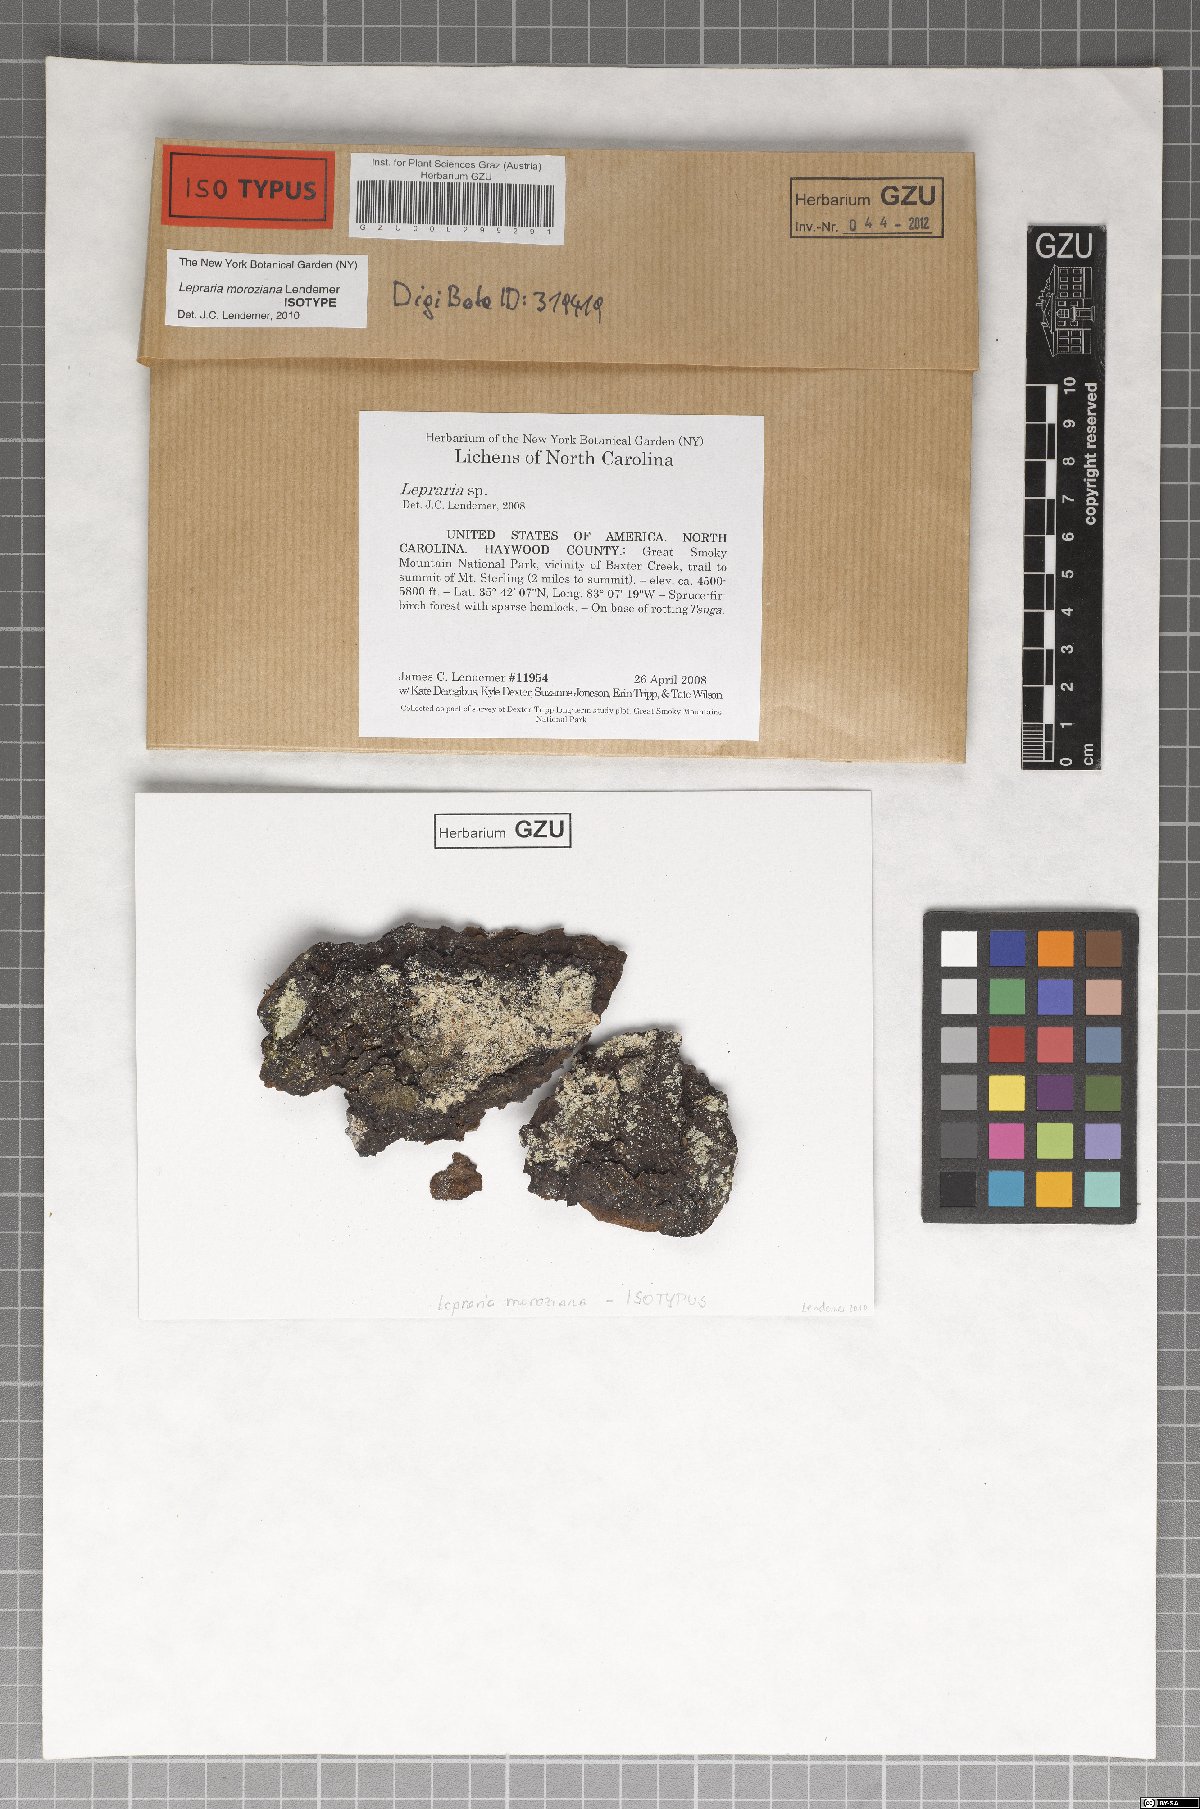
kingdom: Fungi
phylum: Ascomycota
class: Arthoniomycetes
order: Arthoniales
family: Andreiomycetaceae
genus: Andreiomyces
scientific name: Andreiomyces morozianus
